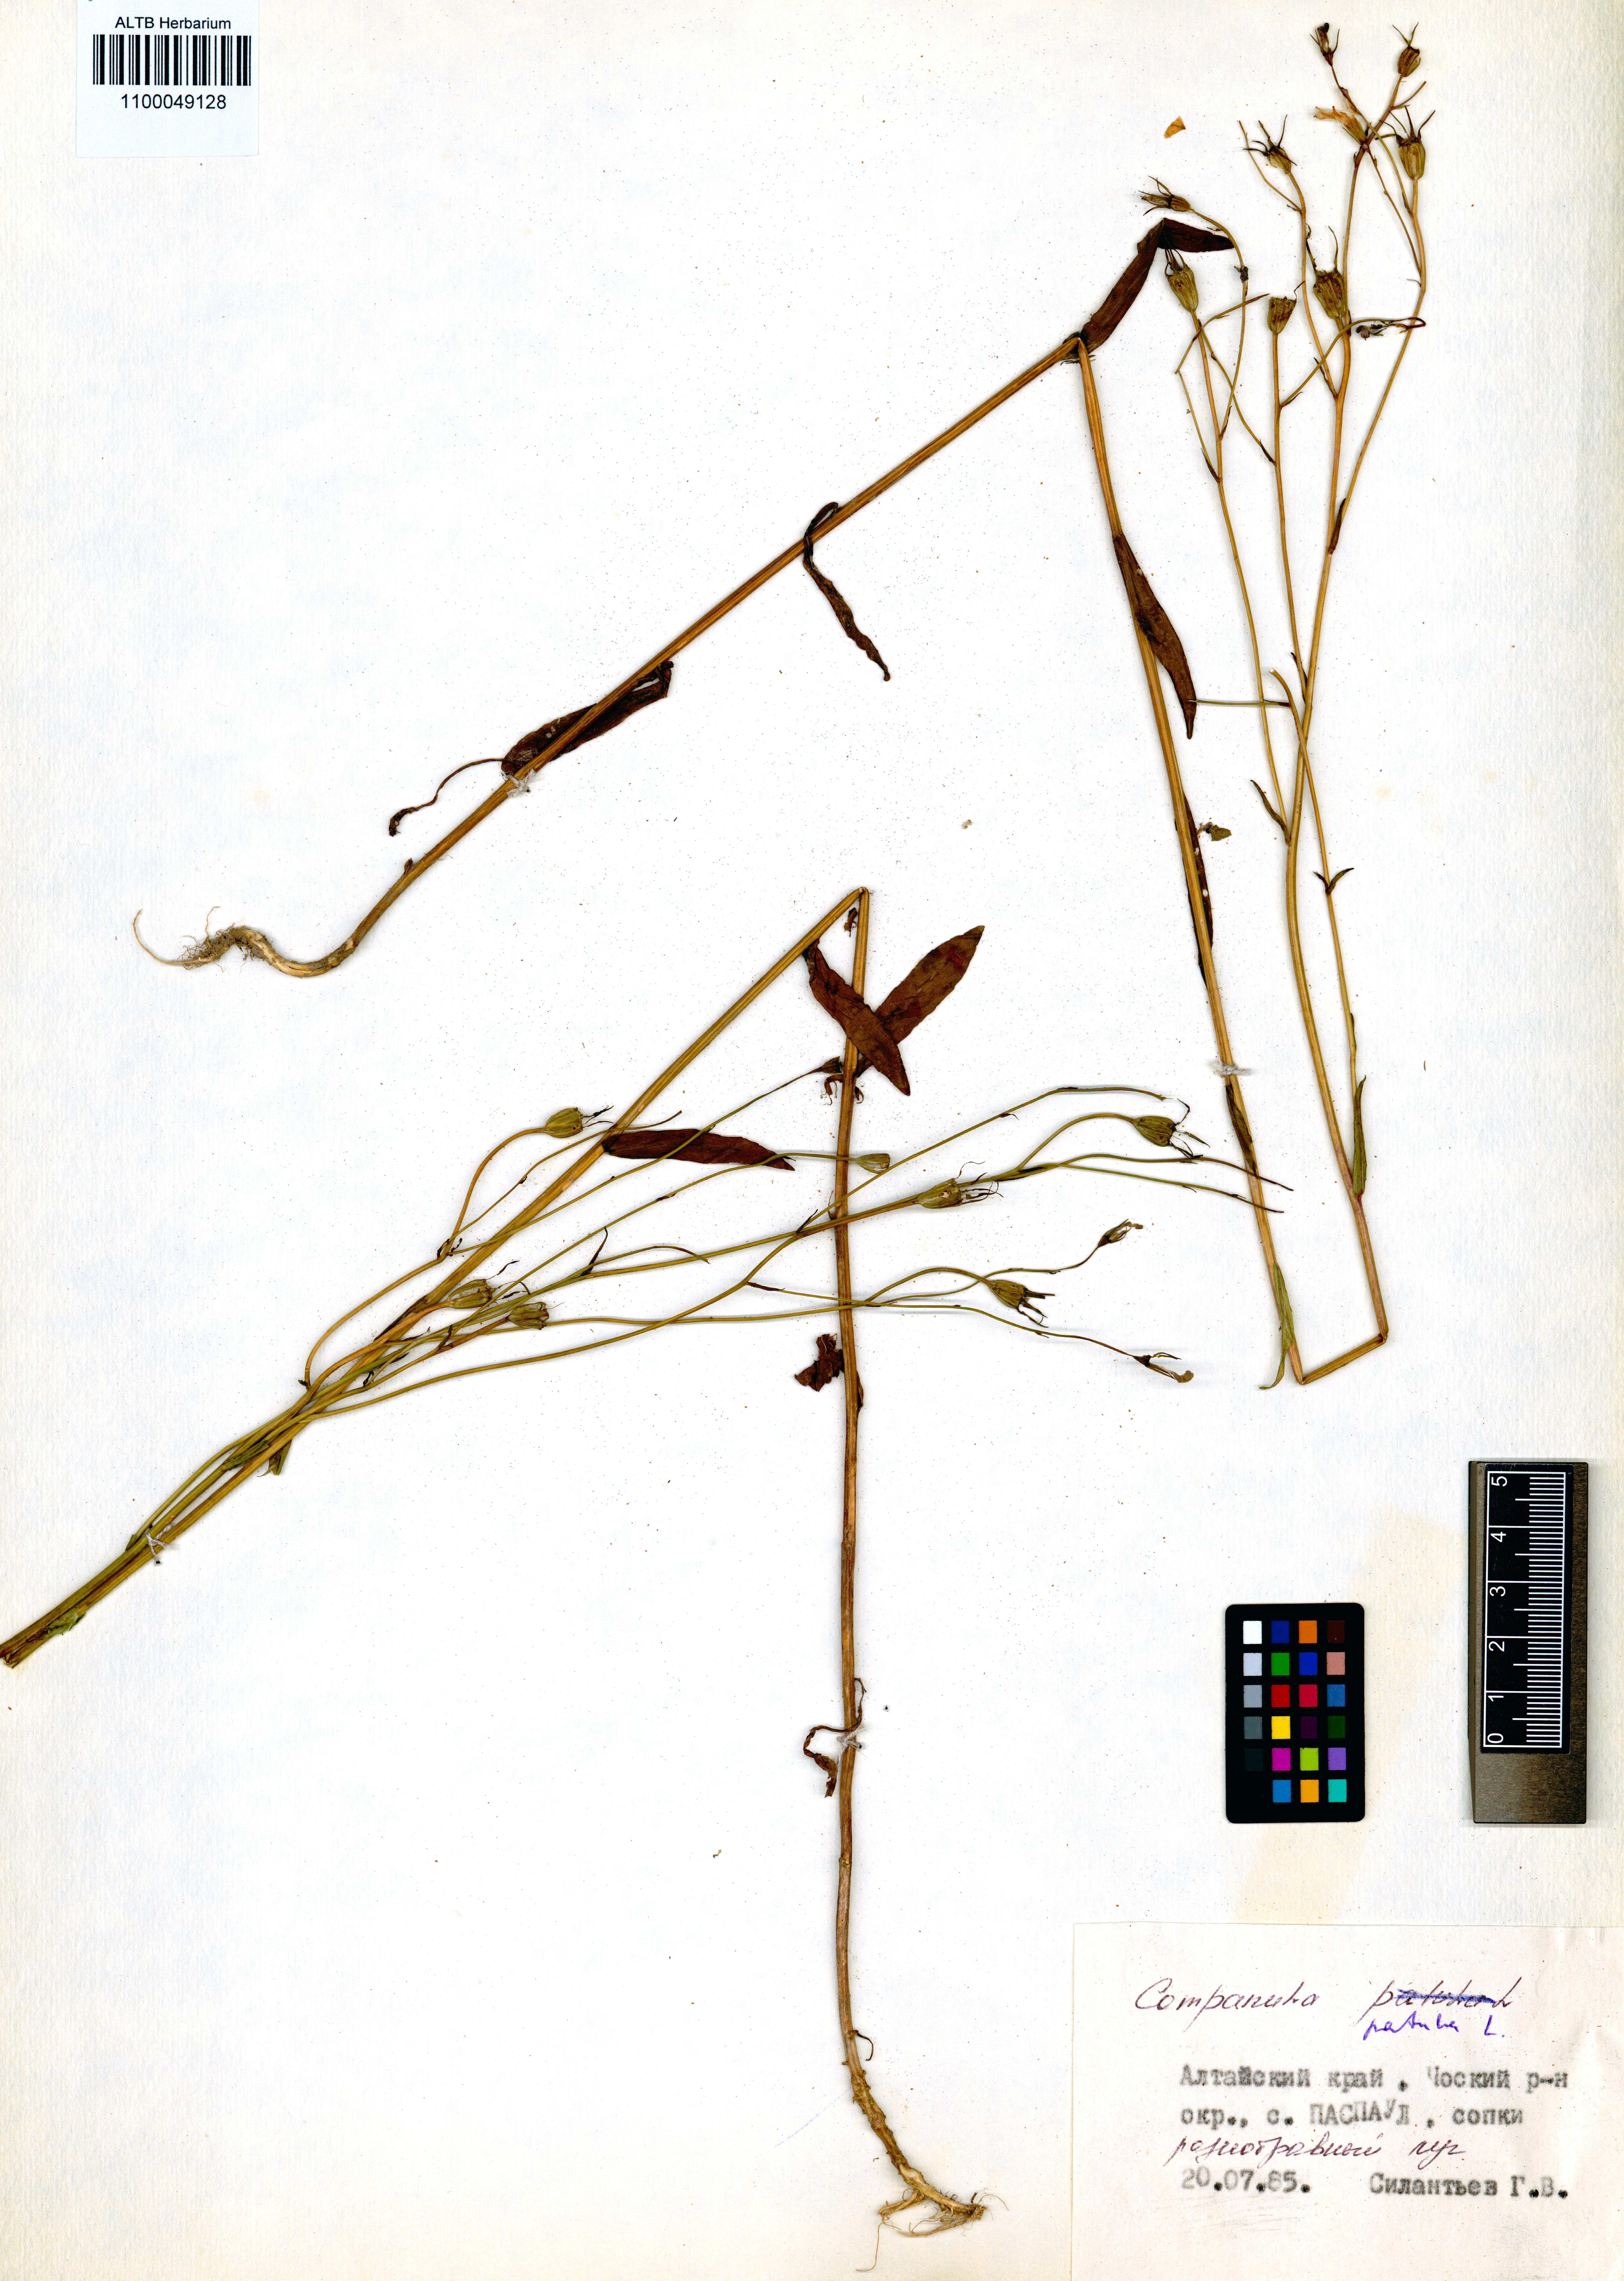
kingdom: Plantae
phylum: Tracheophyta
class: Magnoliopsida
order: Asterales
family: Campanulaceae
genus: Campanula
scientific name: Campanula patula
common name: Spreading bellflower
